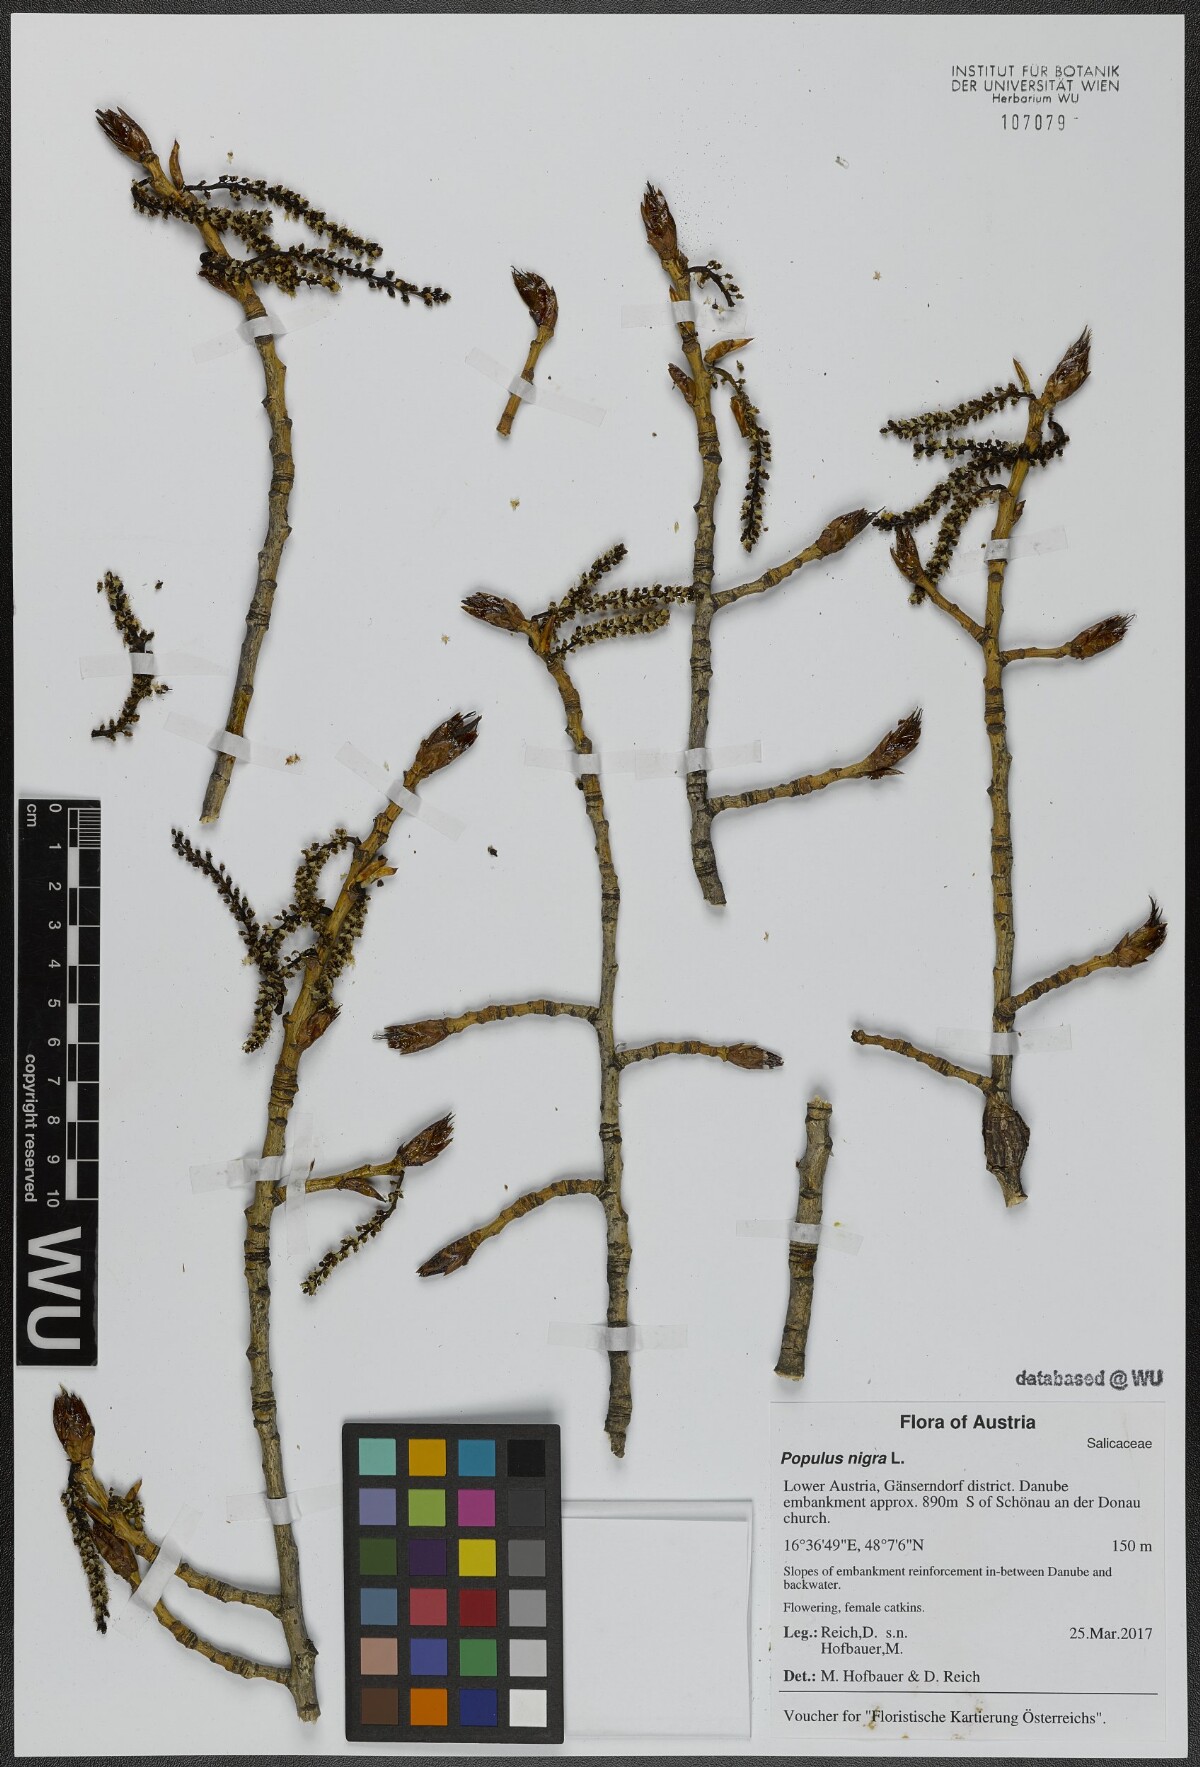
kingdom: Plantae
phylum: Tracheophyta
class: Magnoliopsida
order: Malpighiales
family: Salicaceae
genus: Populus
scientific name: Populus nigra
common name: Black poplar
